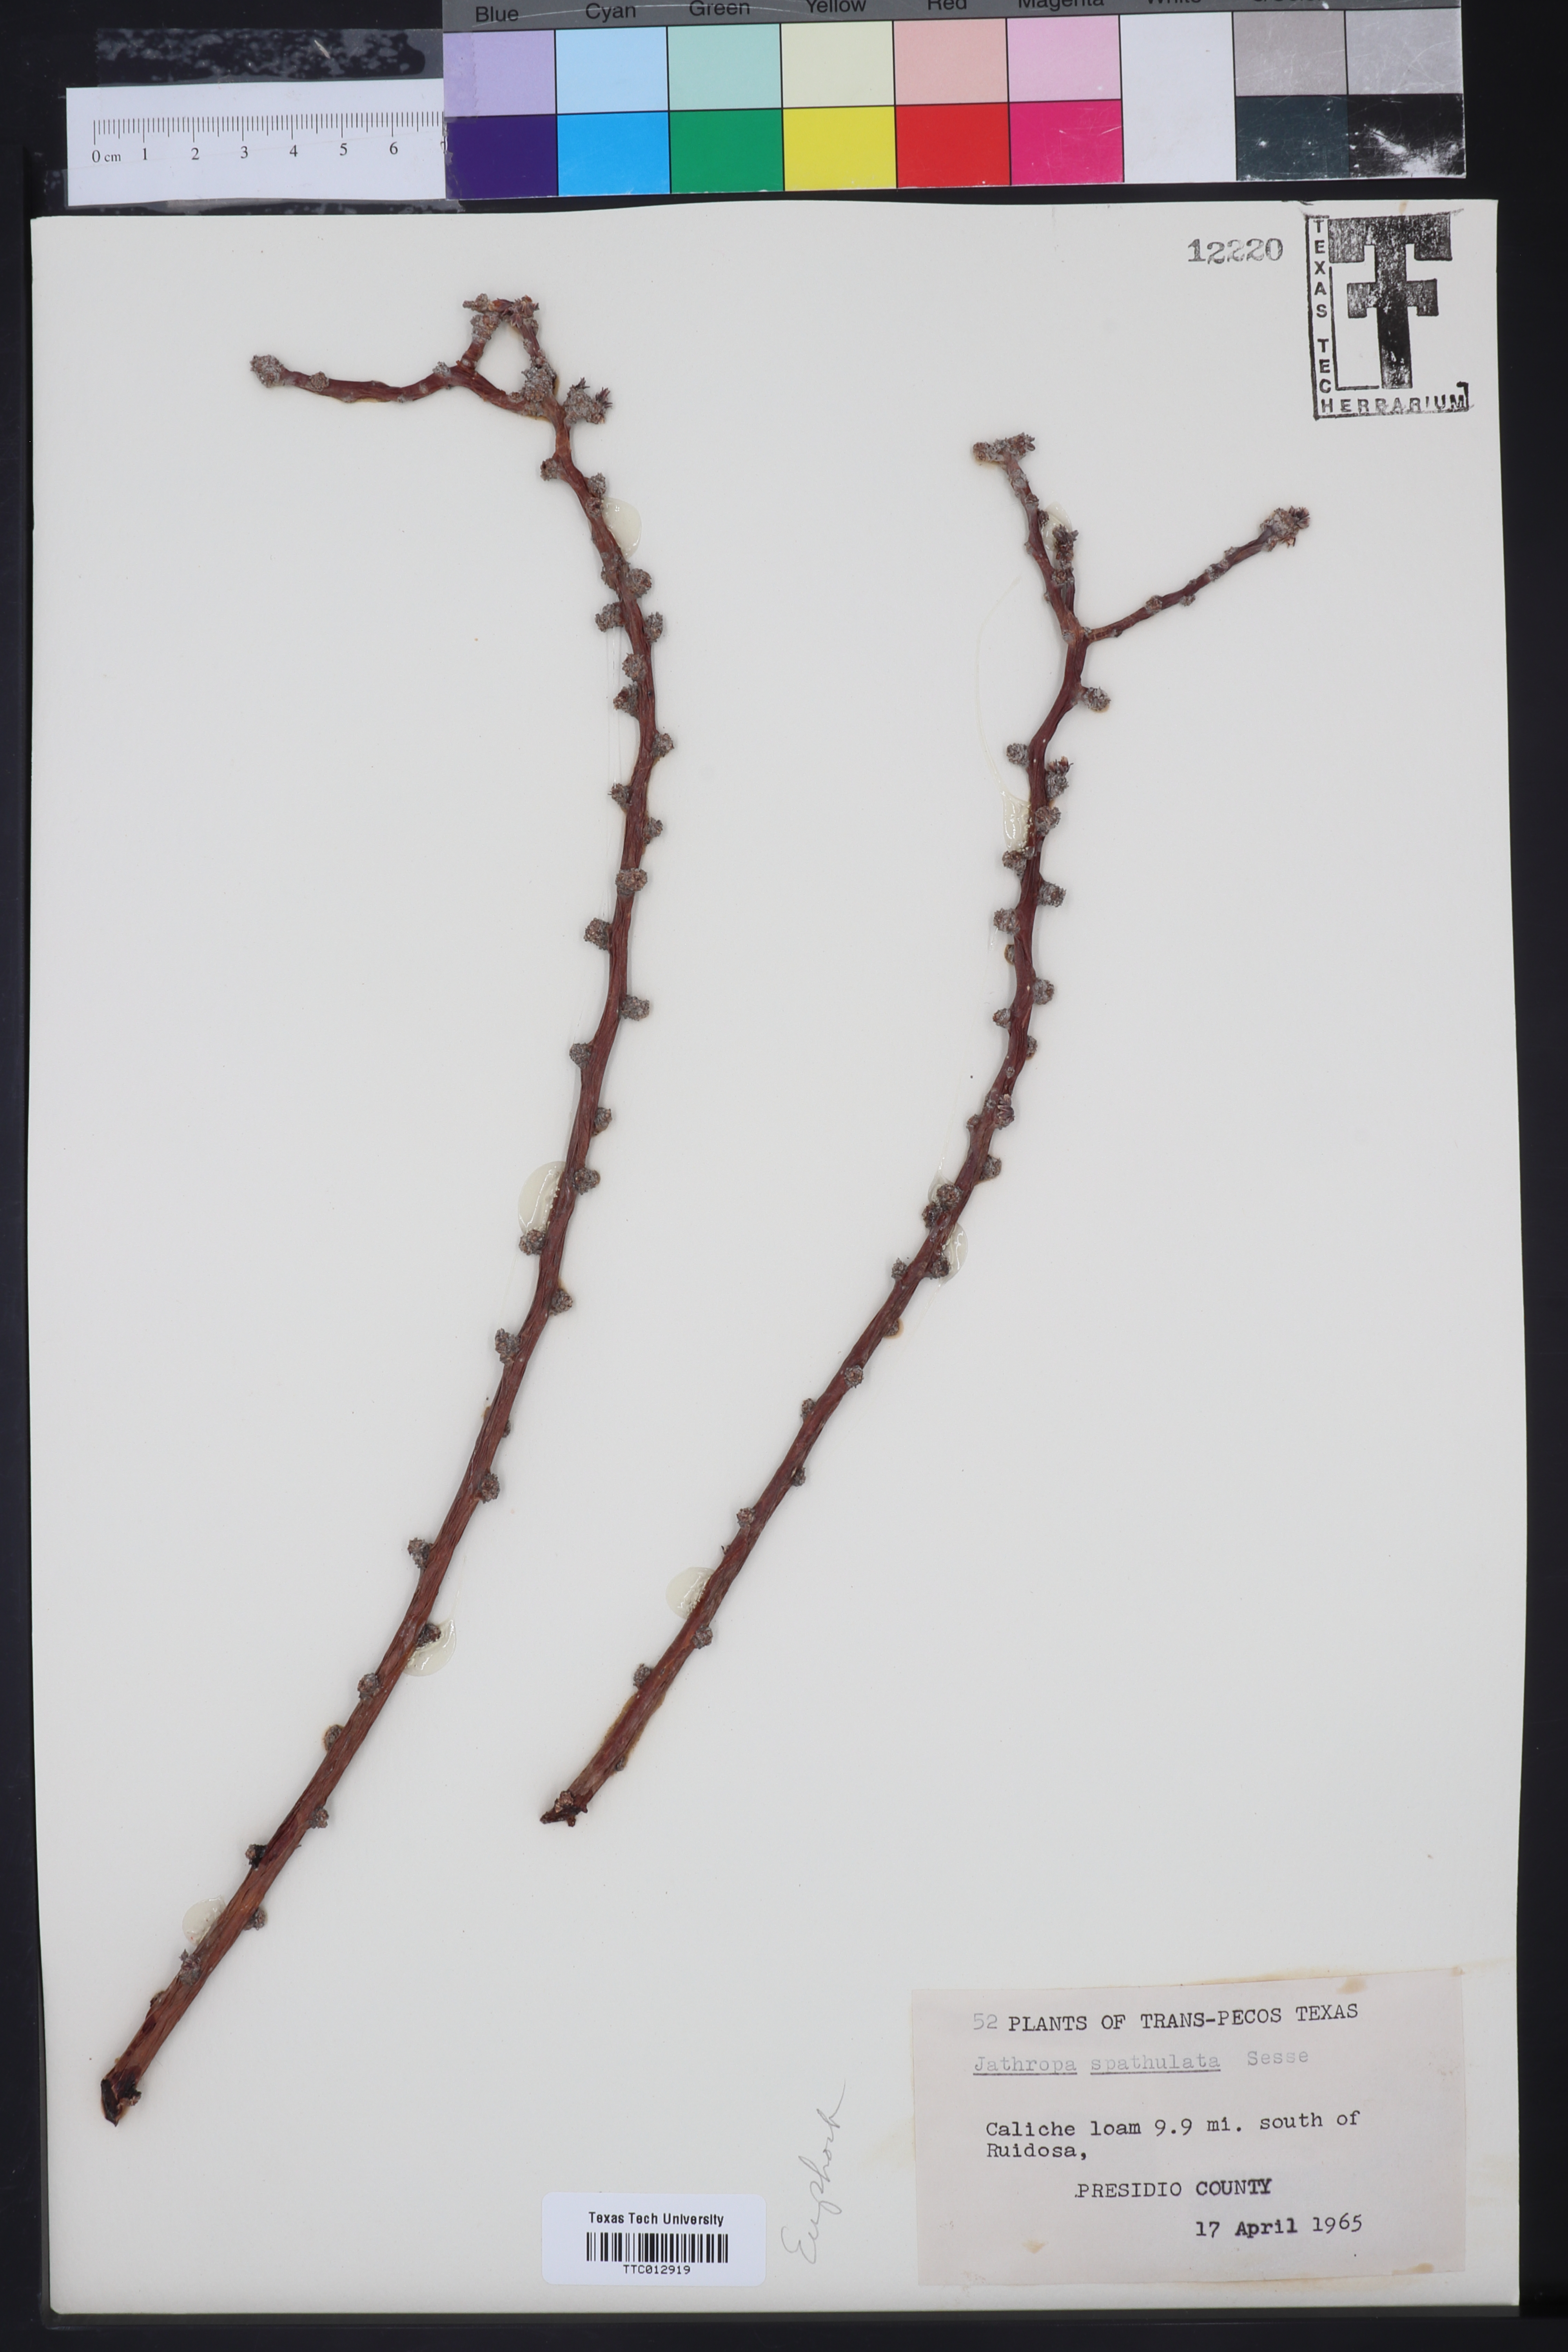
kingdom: Plantae
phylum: Tracheophyta
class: Magnoliopsida
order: Malpighiales
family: Euphorbiaceae
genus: Jatropha
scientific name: Jatropha dioica
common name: Leatherstem
